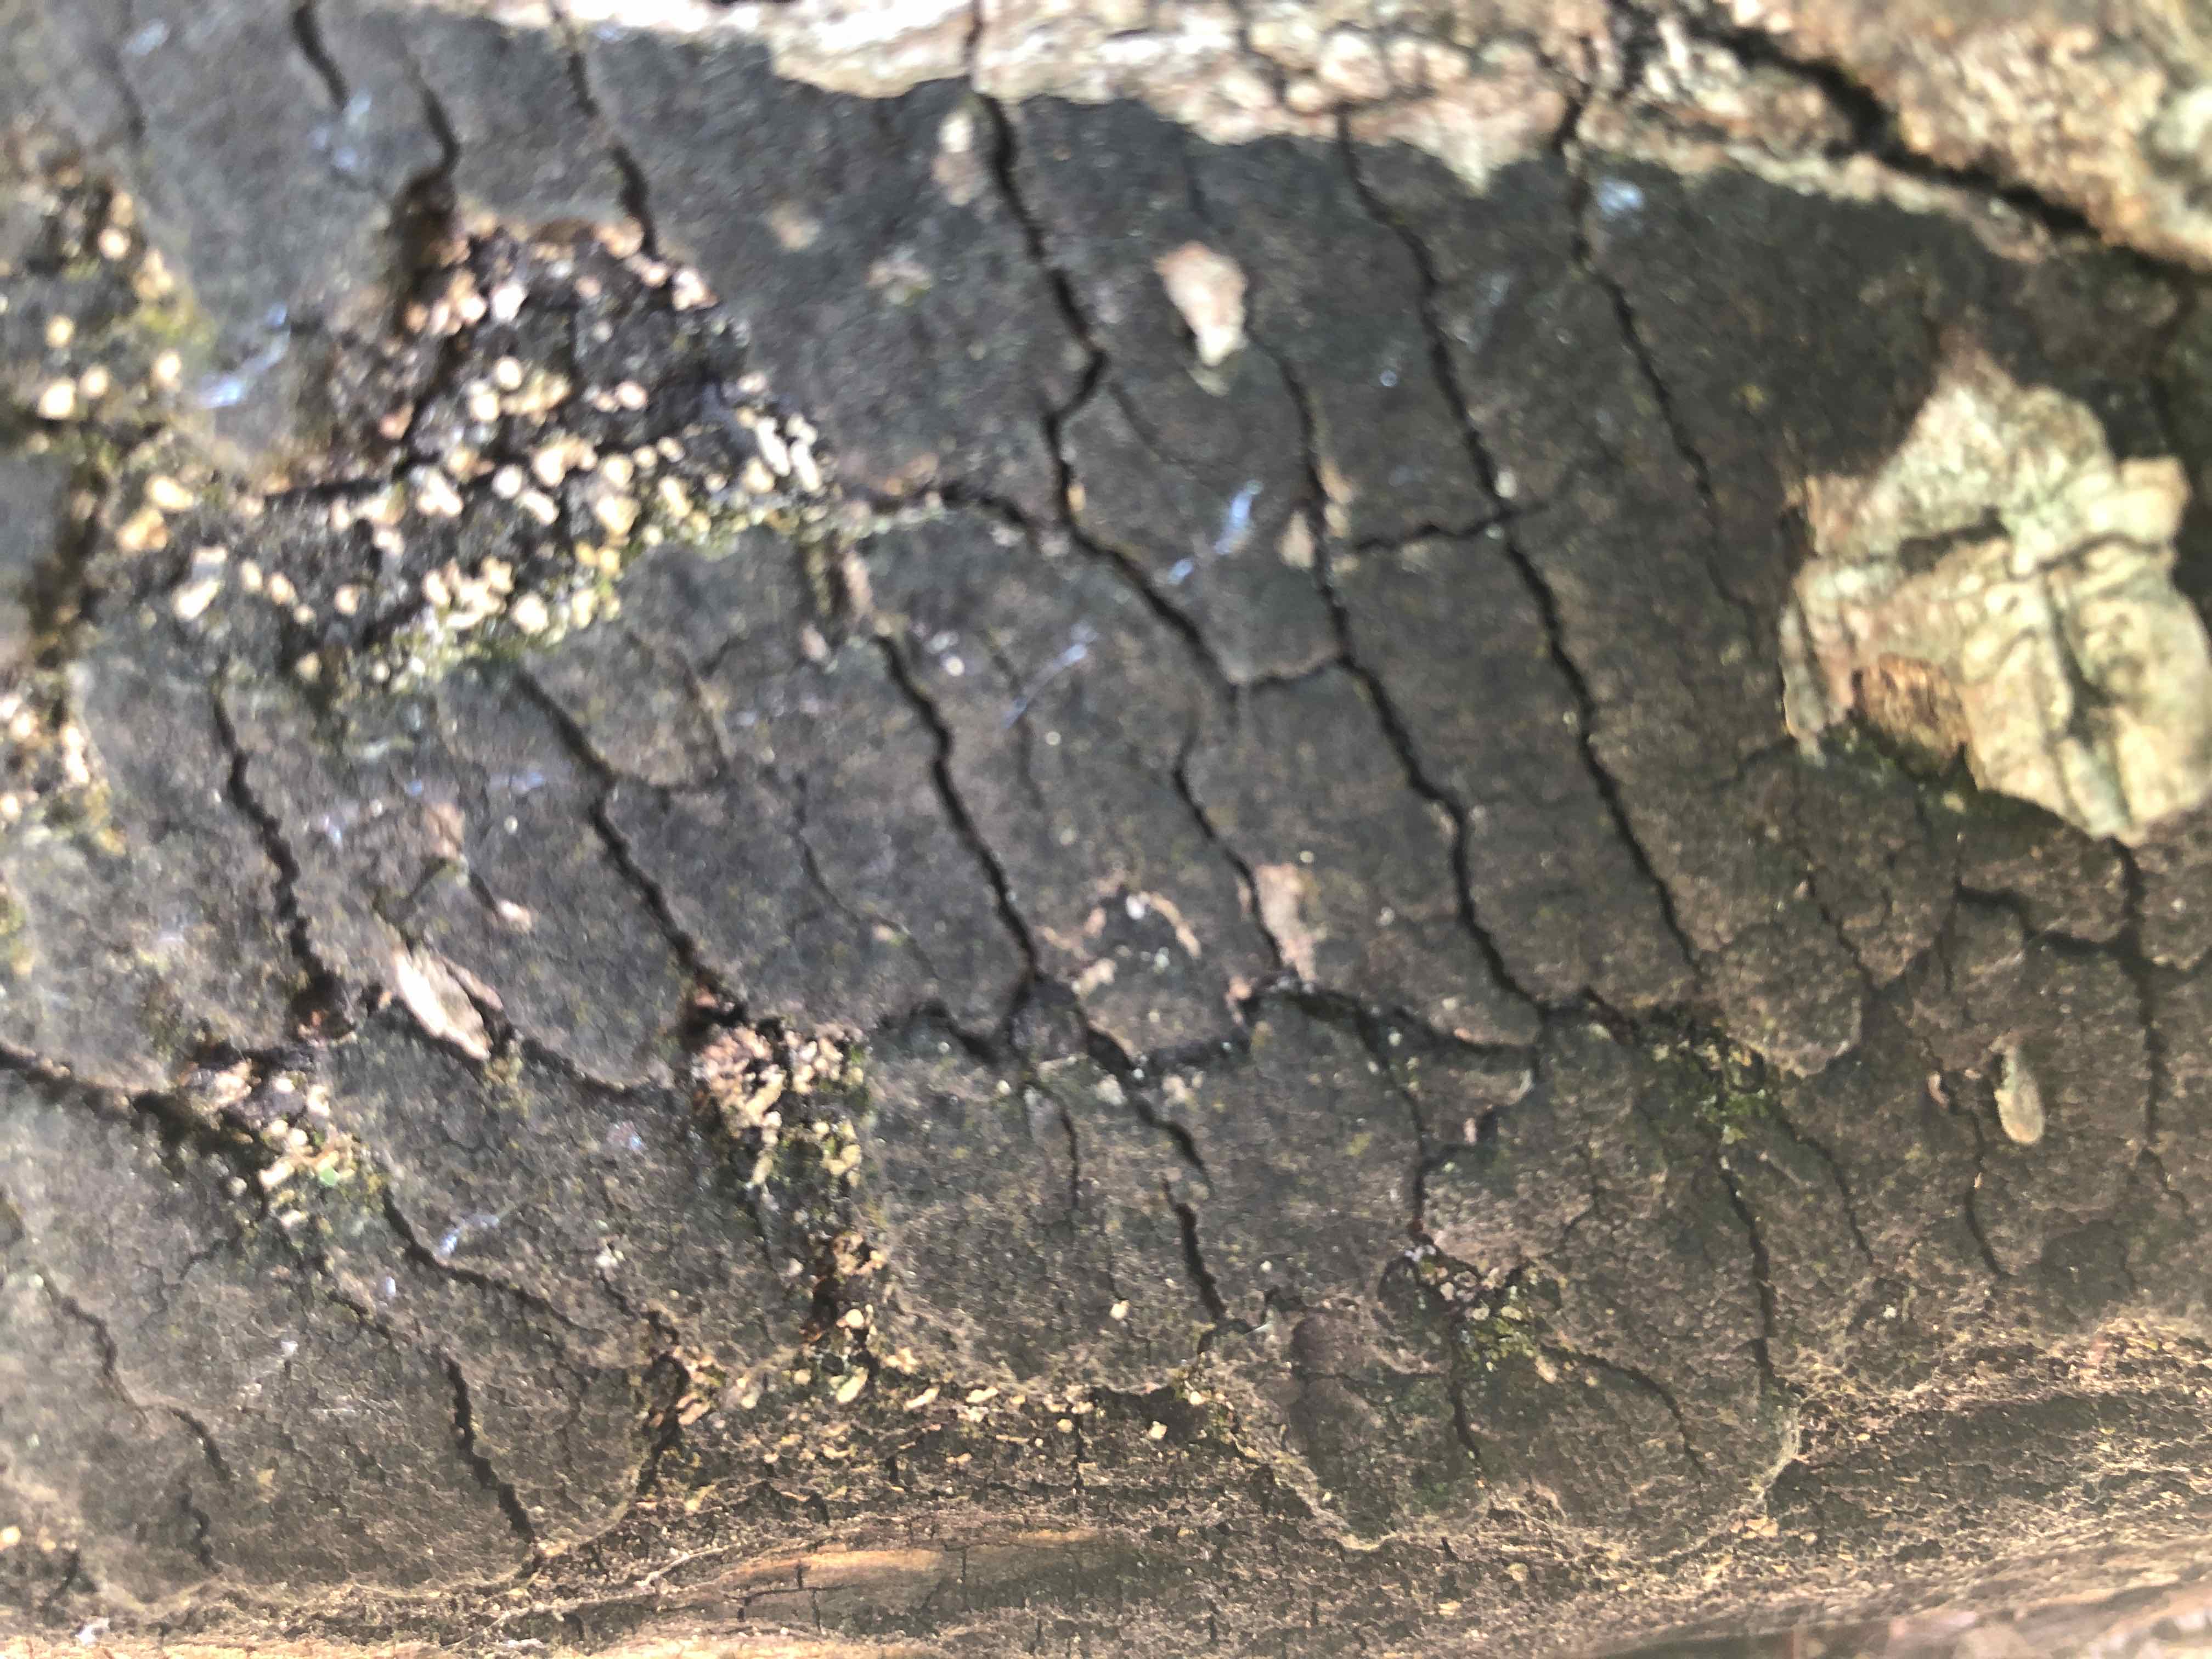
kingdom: Fungi
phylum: Ascomycota
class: Sordariomycetes
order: Xylariales
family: Diatrypaceae
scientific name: Diatrypaceae
